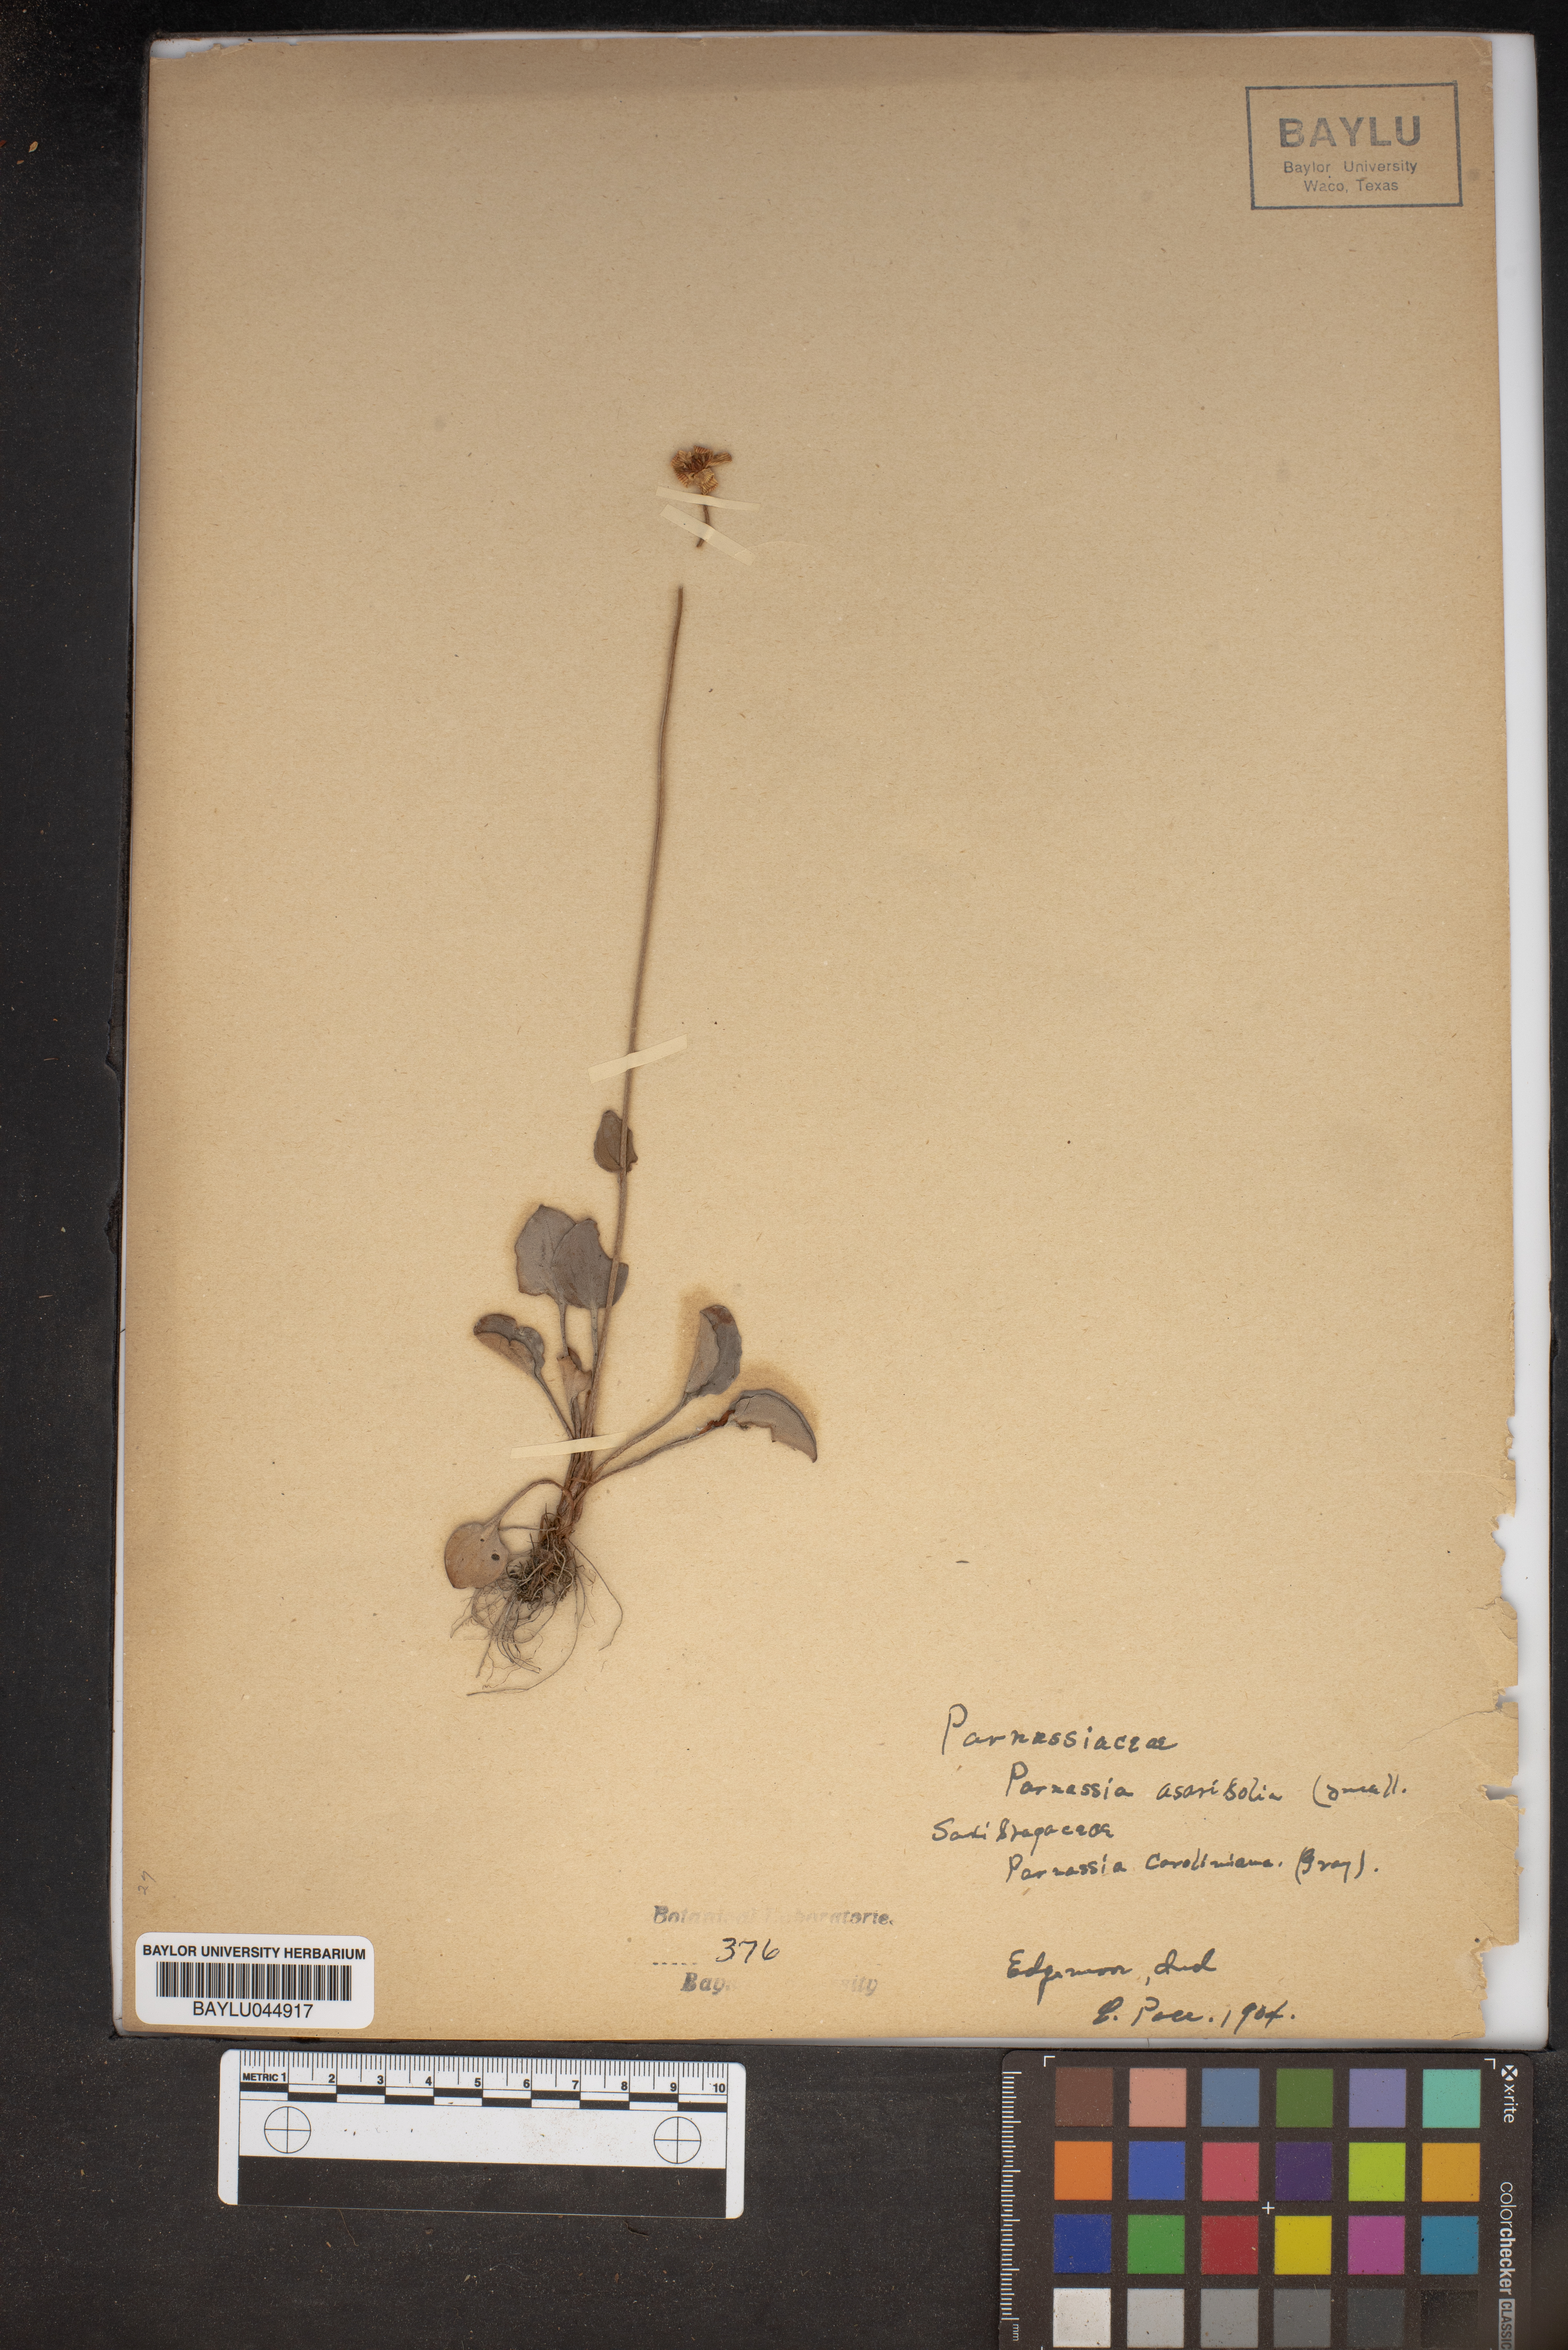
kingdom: Plantae
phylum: Tracheophyta
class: Magnoliopsida
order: Celastrales
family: Parnassiaceae
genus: Parnassia
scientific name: Parnassia asarifolia
